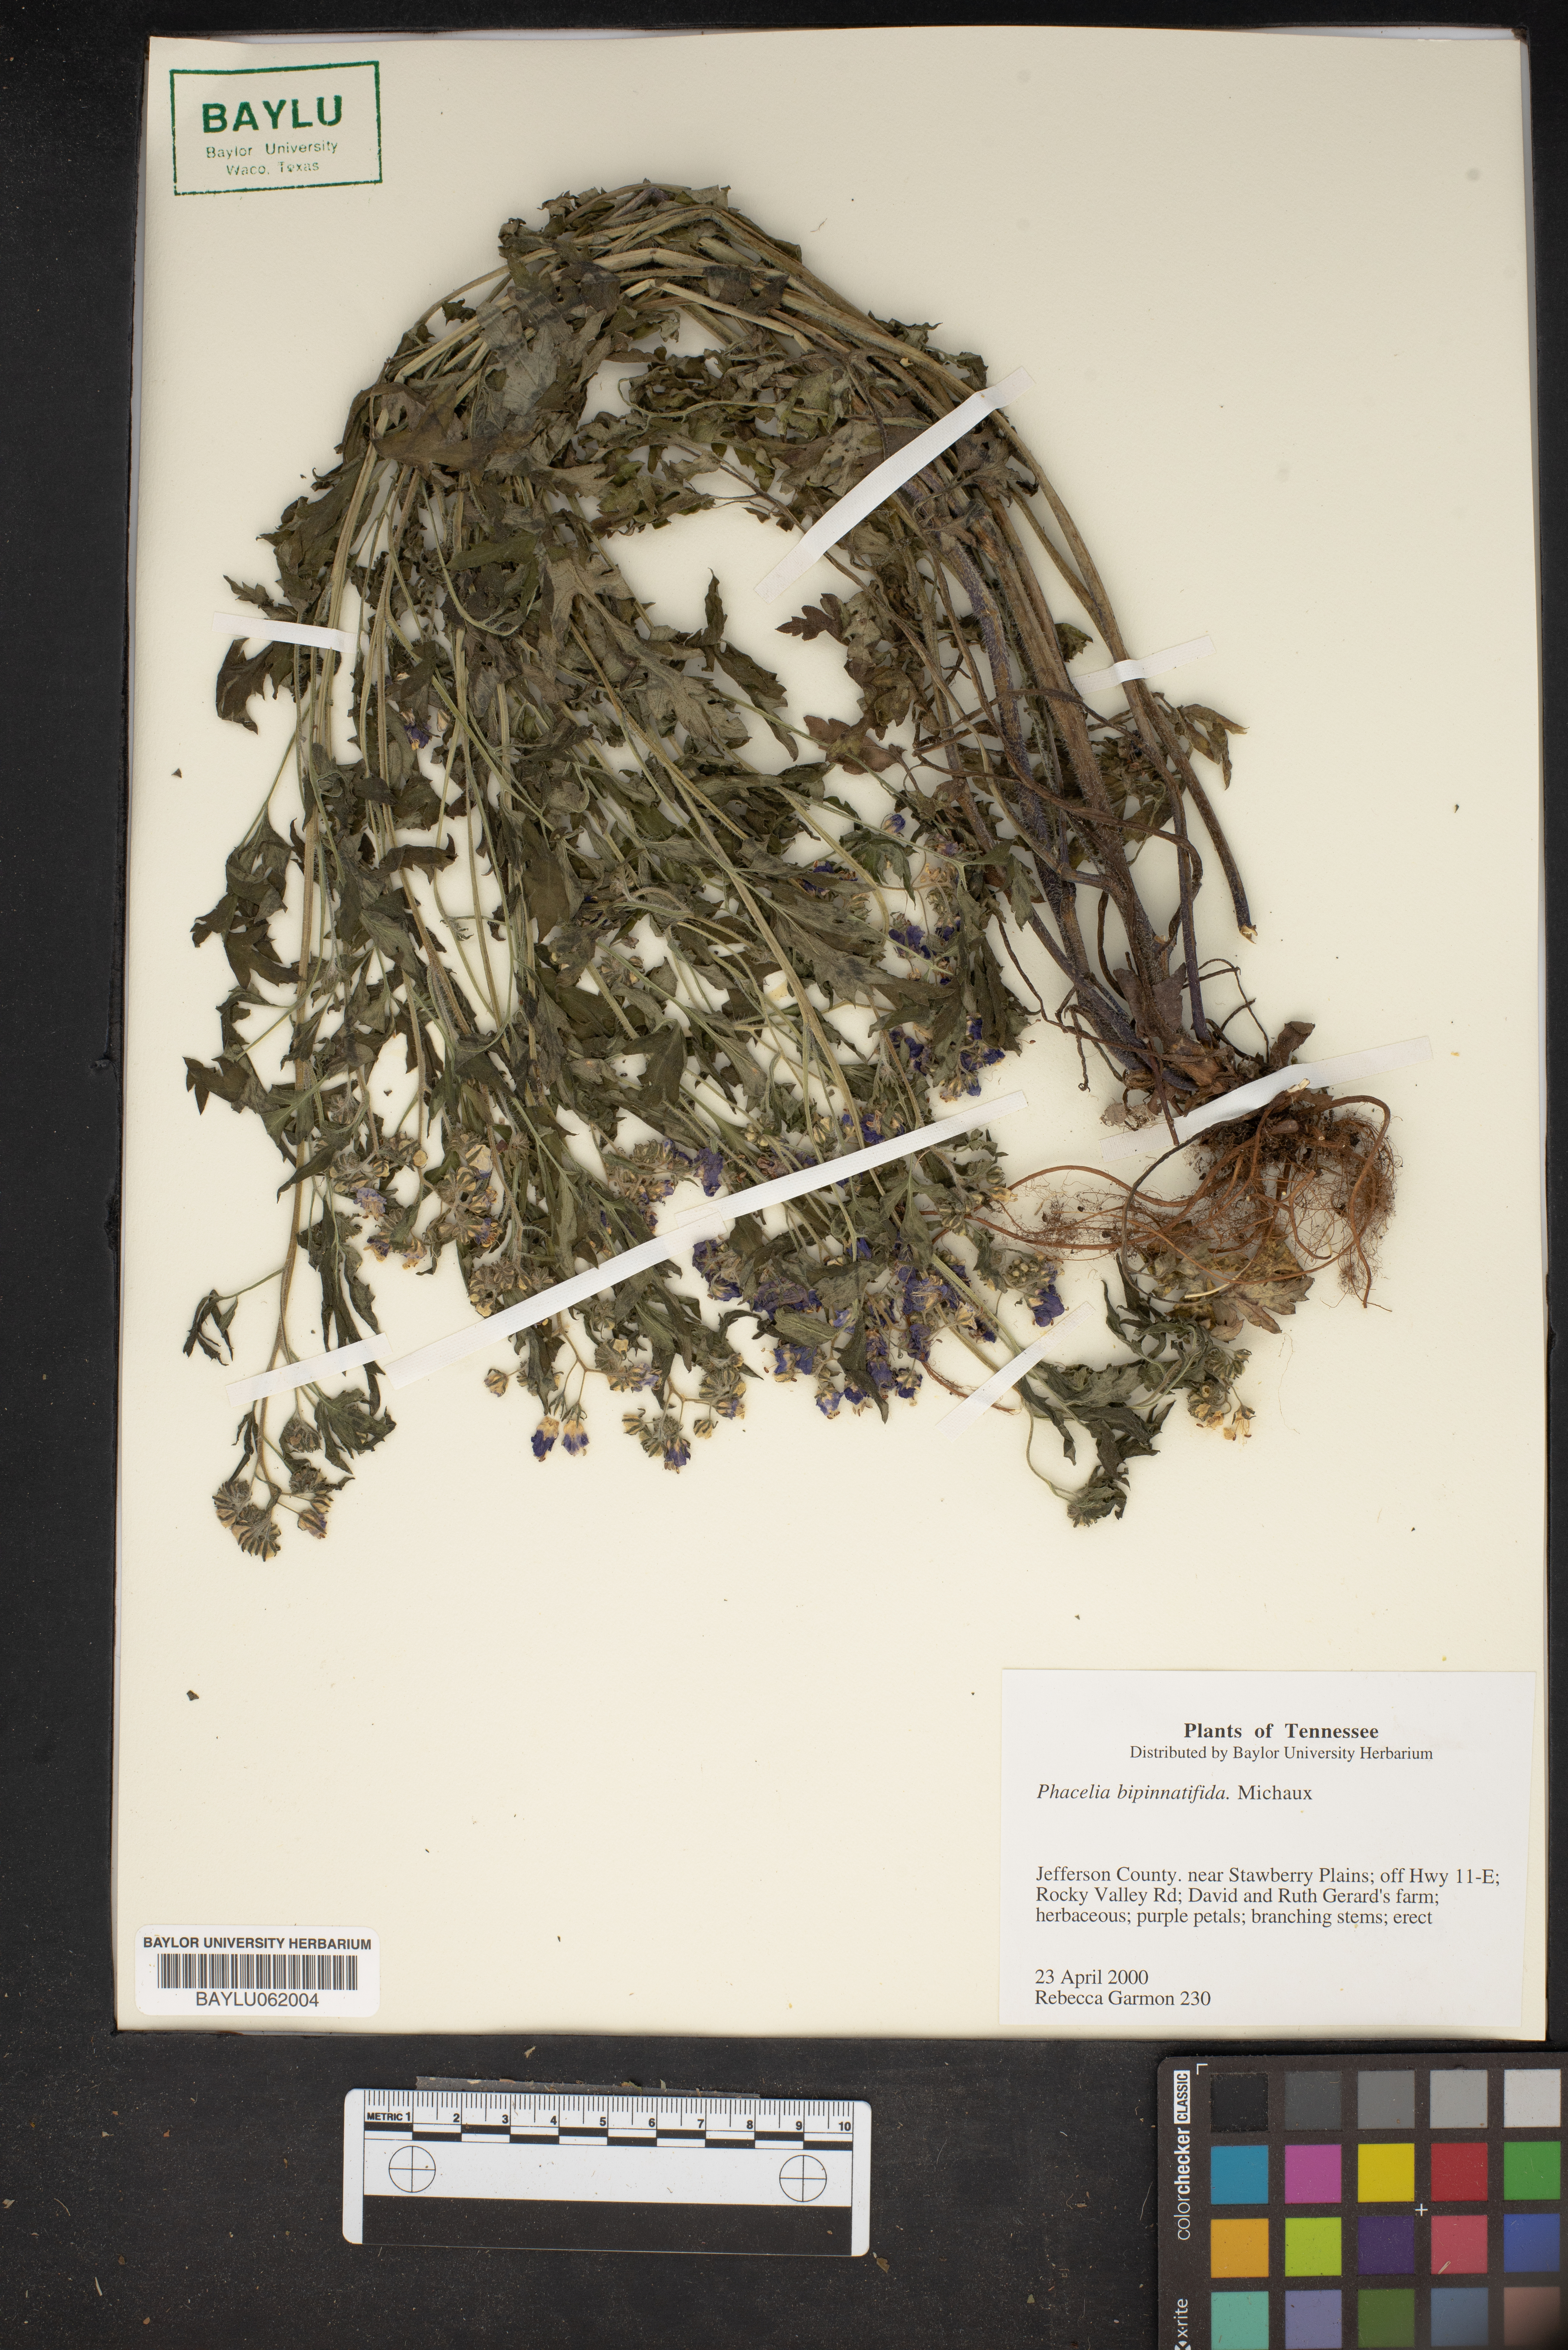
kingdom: Plantae
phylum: Tracheophyta
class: Magnoliopsida
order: Boraginales
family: Hydrophyllaceae
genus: Phacelia
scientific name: Phacelia bipinnatifida
